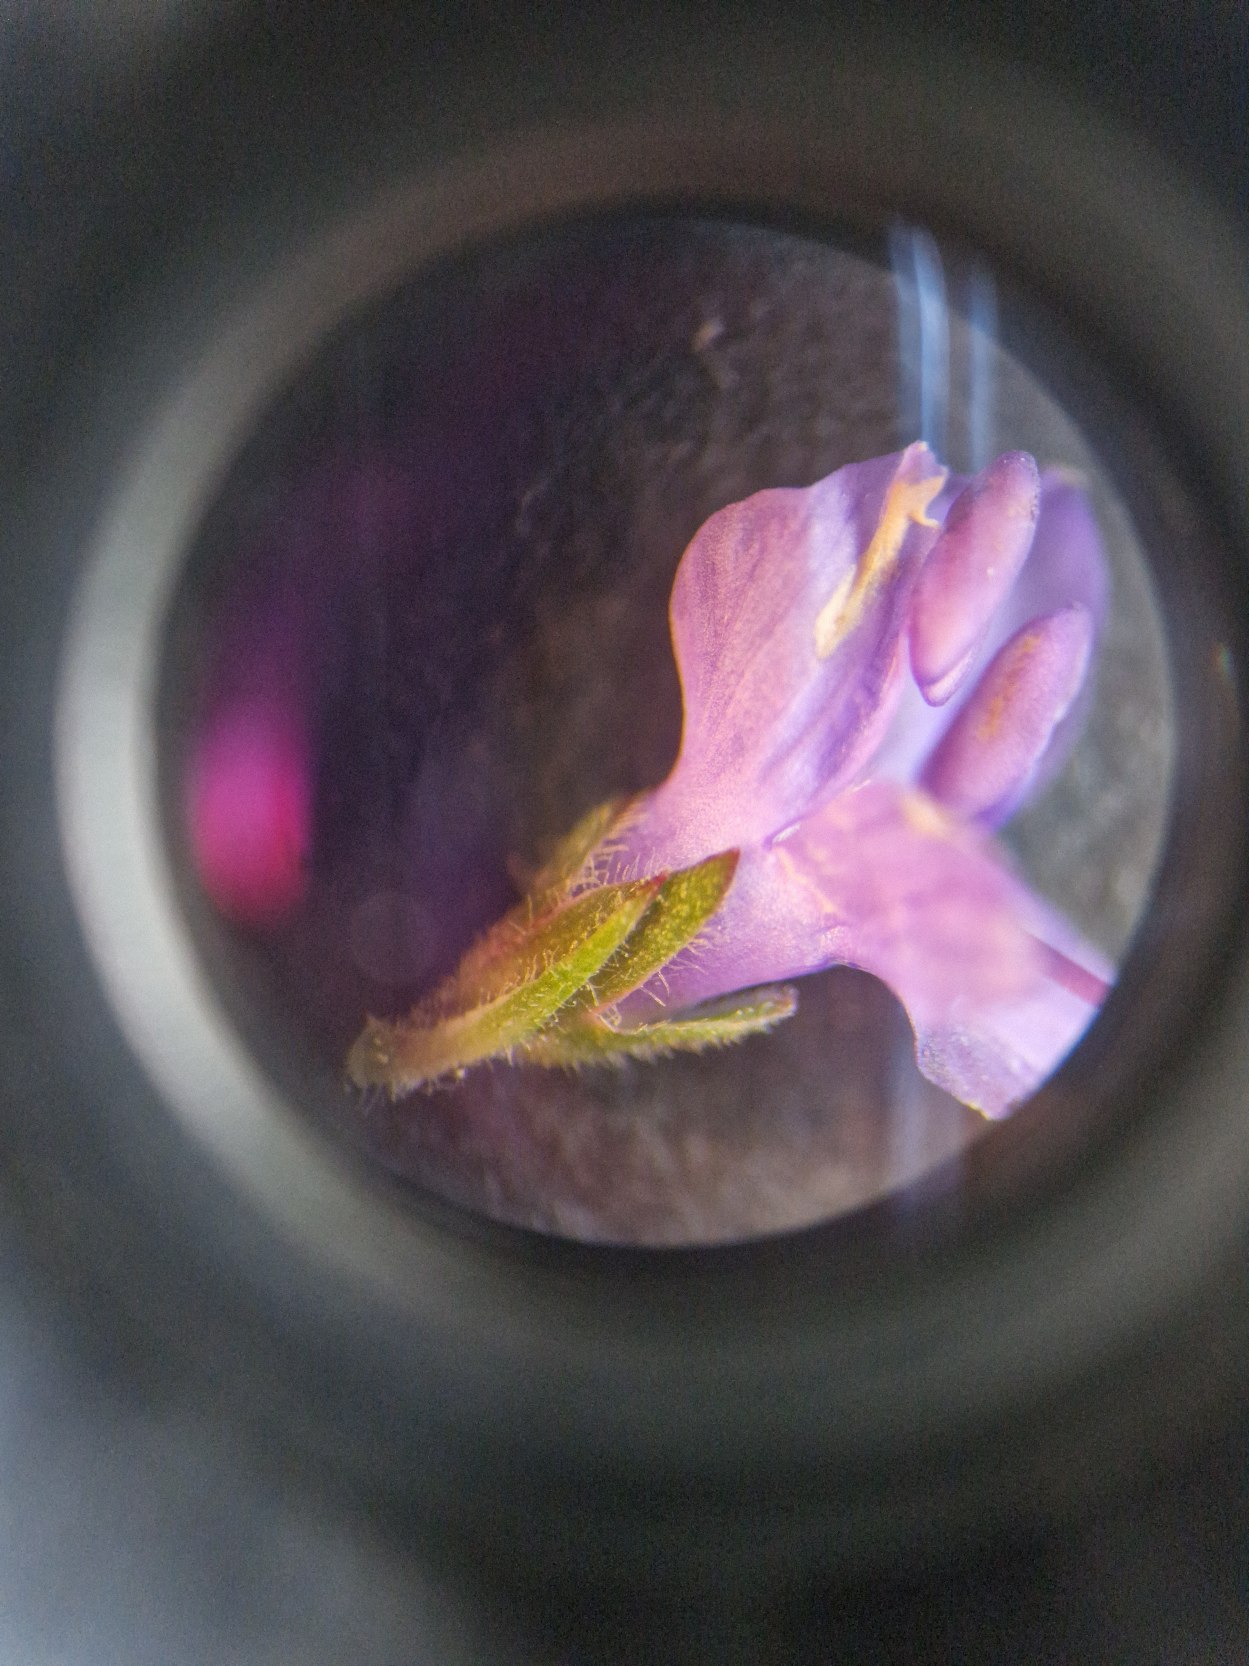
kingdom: Plantae
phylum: Tracheophyta
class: Magnoliopsida
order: Lamiales
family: Plantaginaceae
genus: Veronica
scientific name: Veronica longifolia
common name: Langbladet ærenpris
